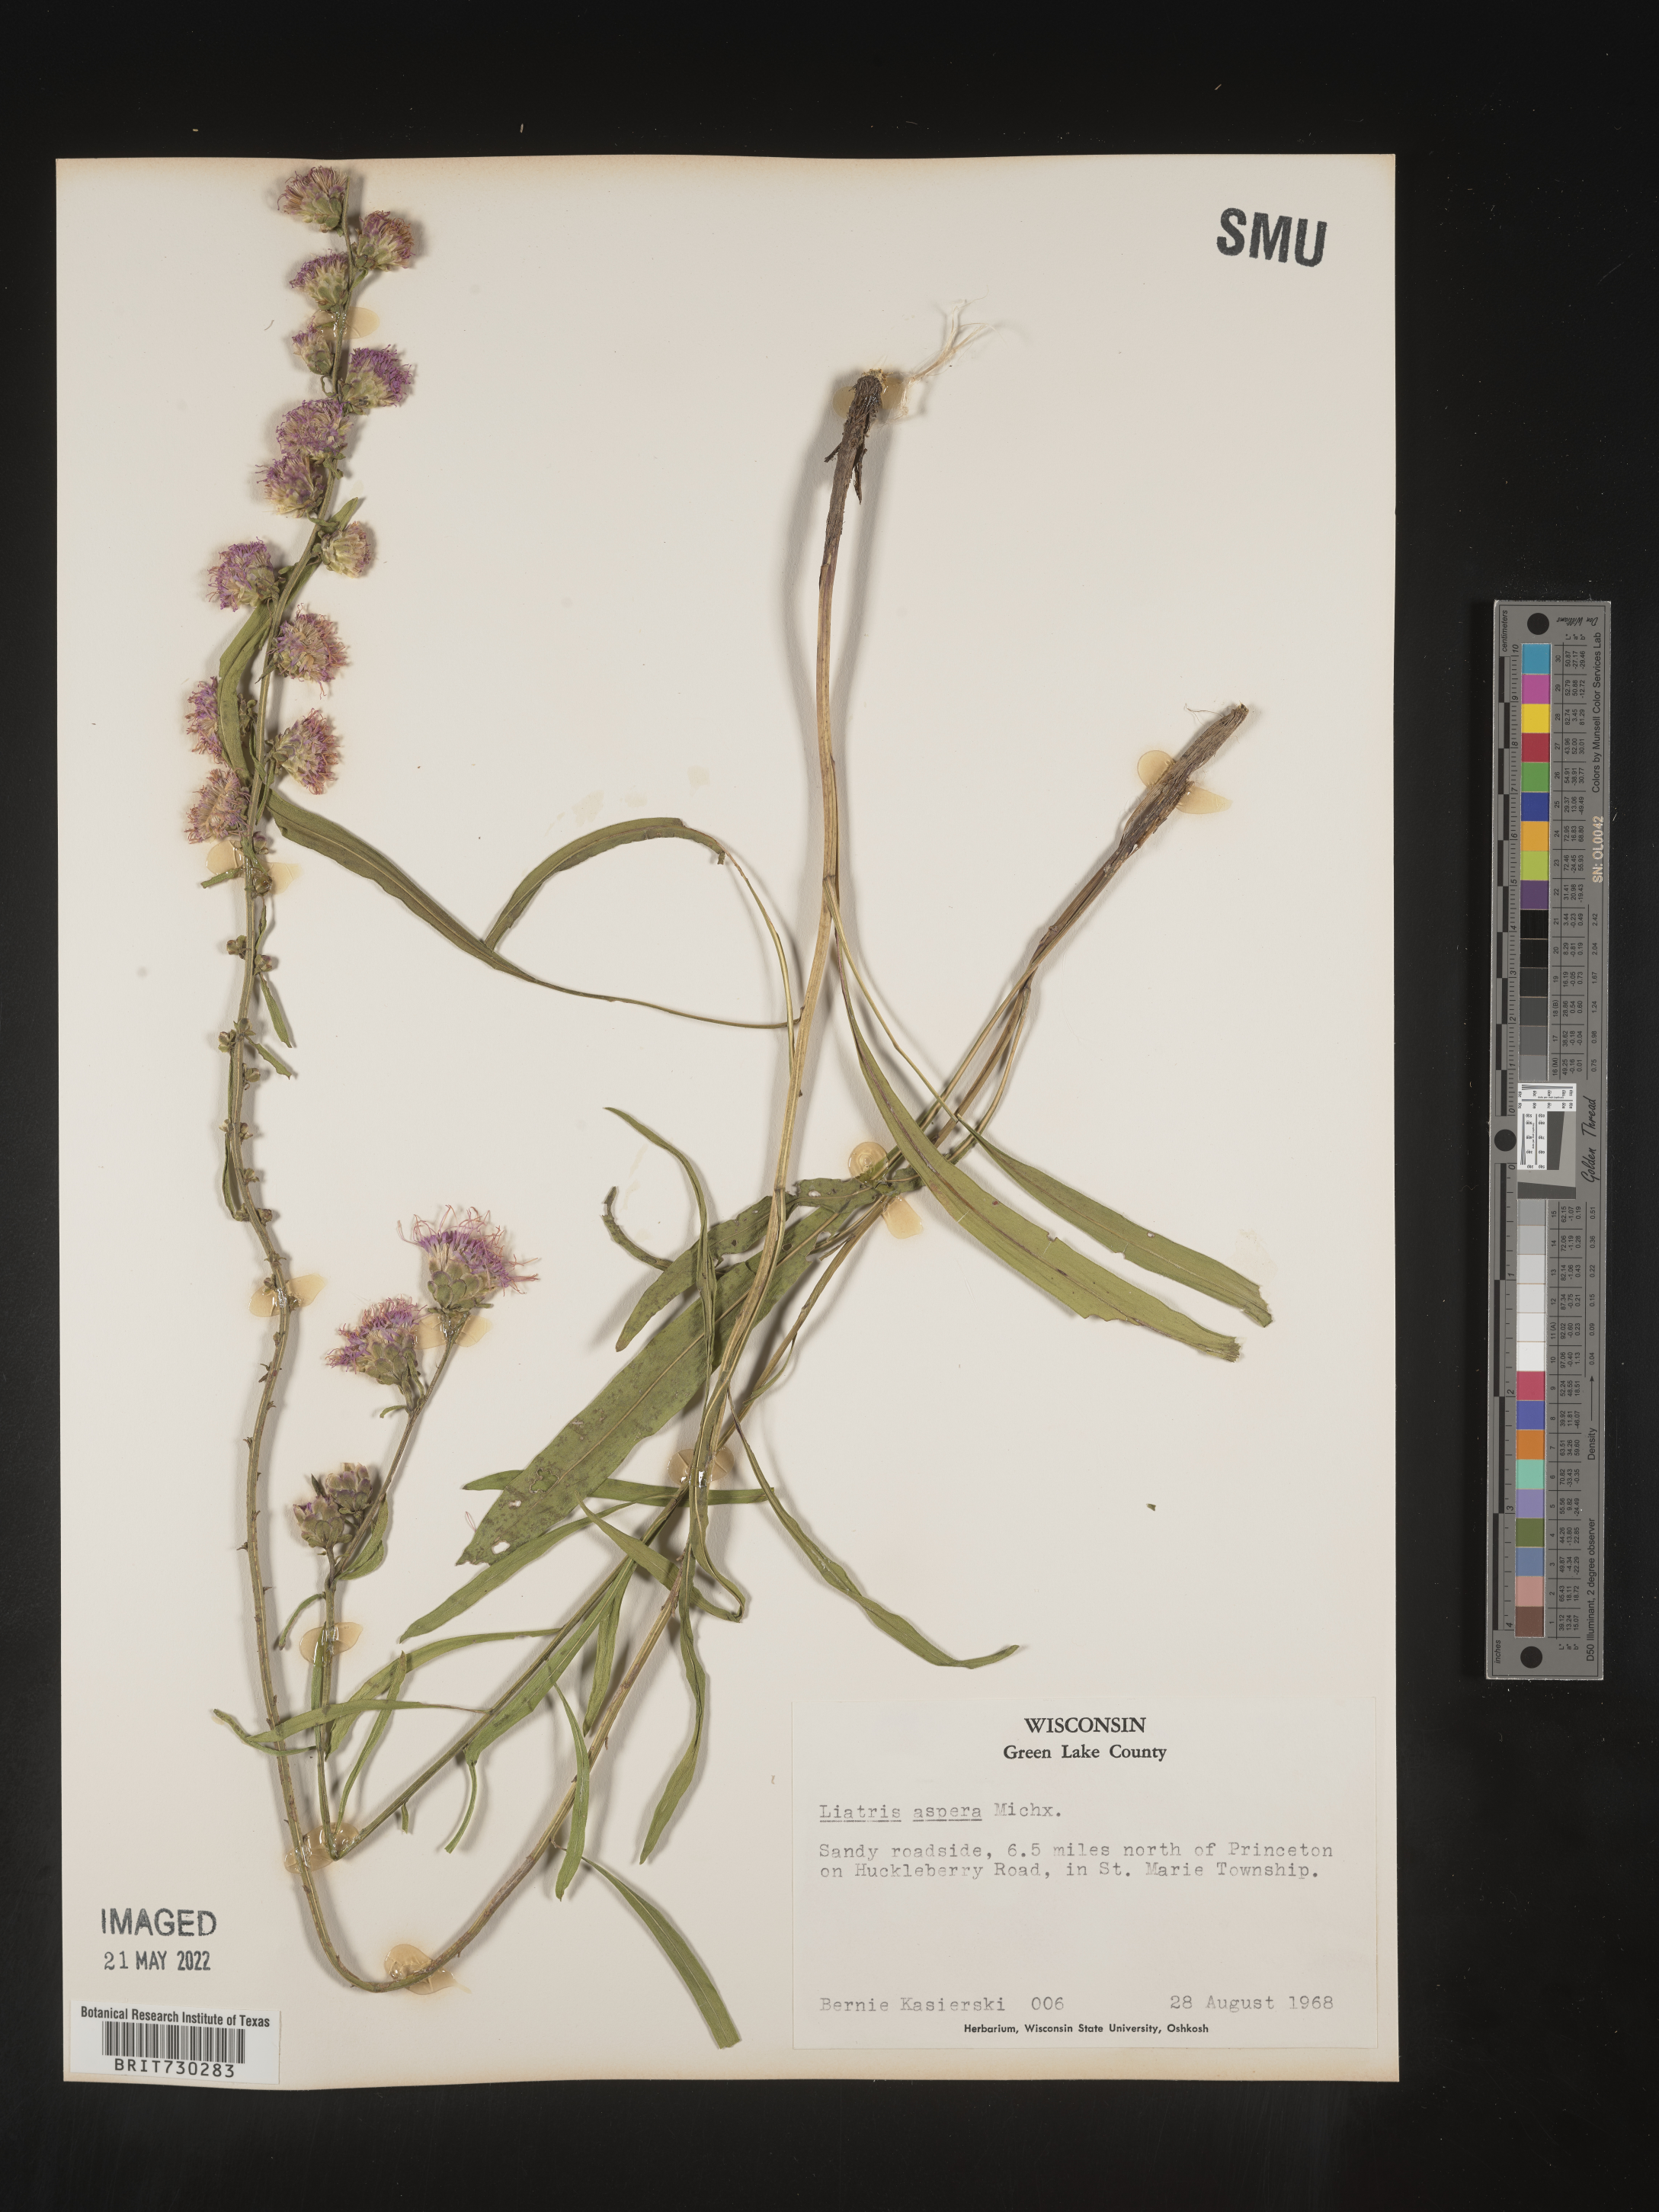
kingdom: Plantae
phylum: Tracheophyta
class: Magnoliopsida
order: Asterales
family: Asteraceae
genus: Liatris
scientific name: Liatris aspera
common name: Lacerate blazing-star
